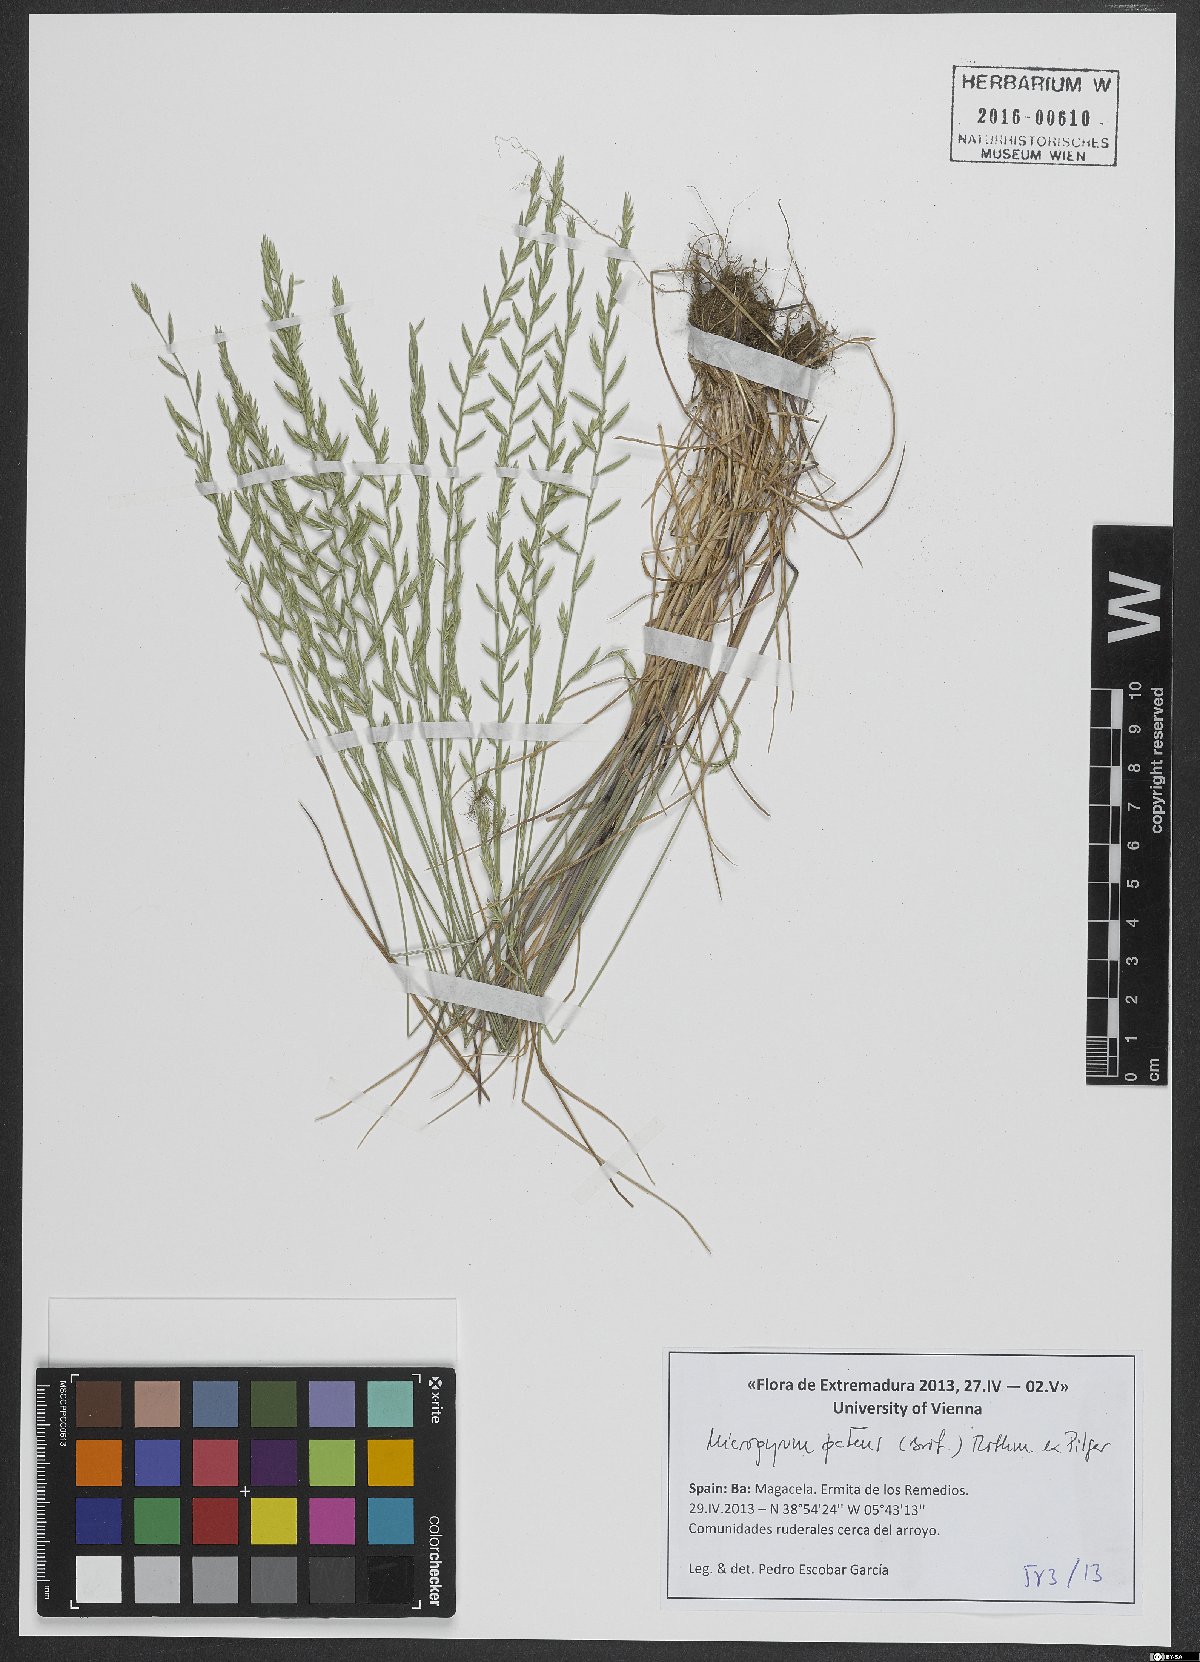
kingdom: Plantae
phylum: Tracheophyta
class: Liliopsida
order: Poales
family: Poaceae
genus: Festuca
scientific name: Festuca Micropyrum patens
